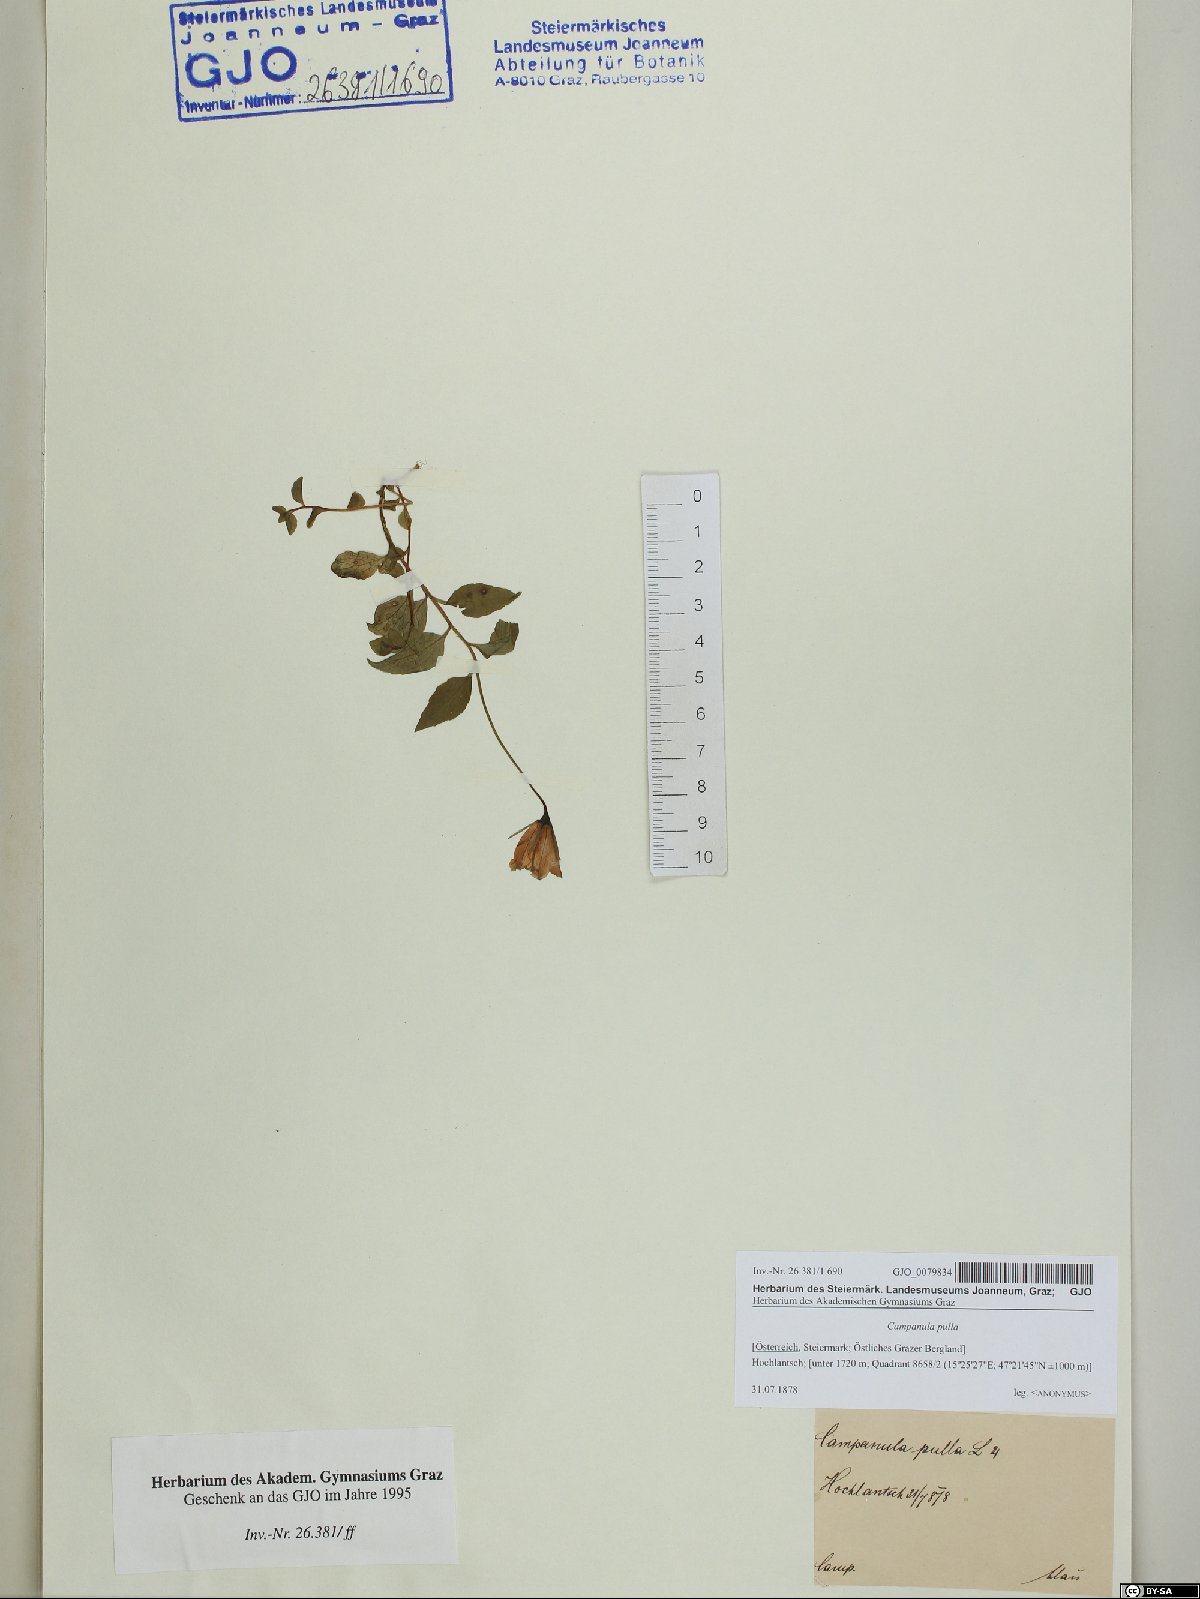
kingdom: Plantae
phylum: Tracheophyta
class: Magnoliopsida
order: Asterales
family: Campanulaceae
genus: Campanula
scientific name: Campanula pulla
